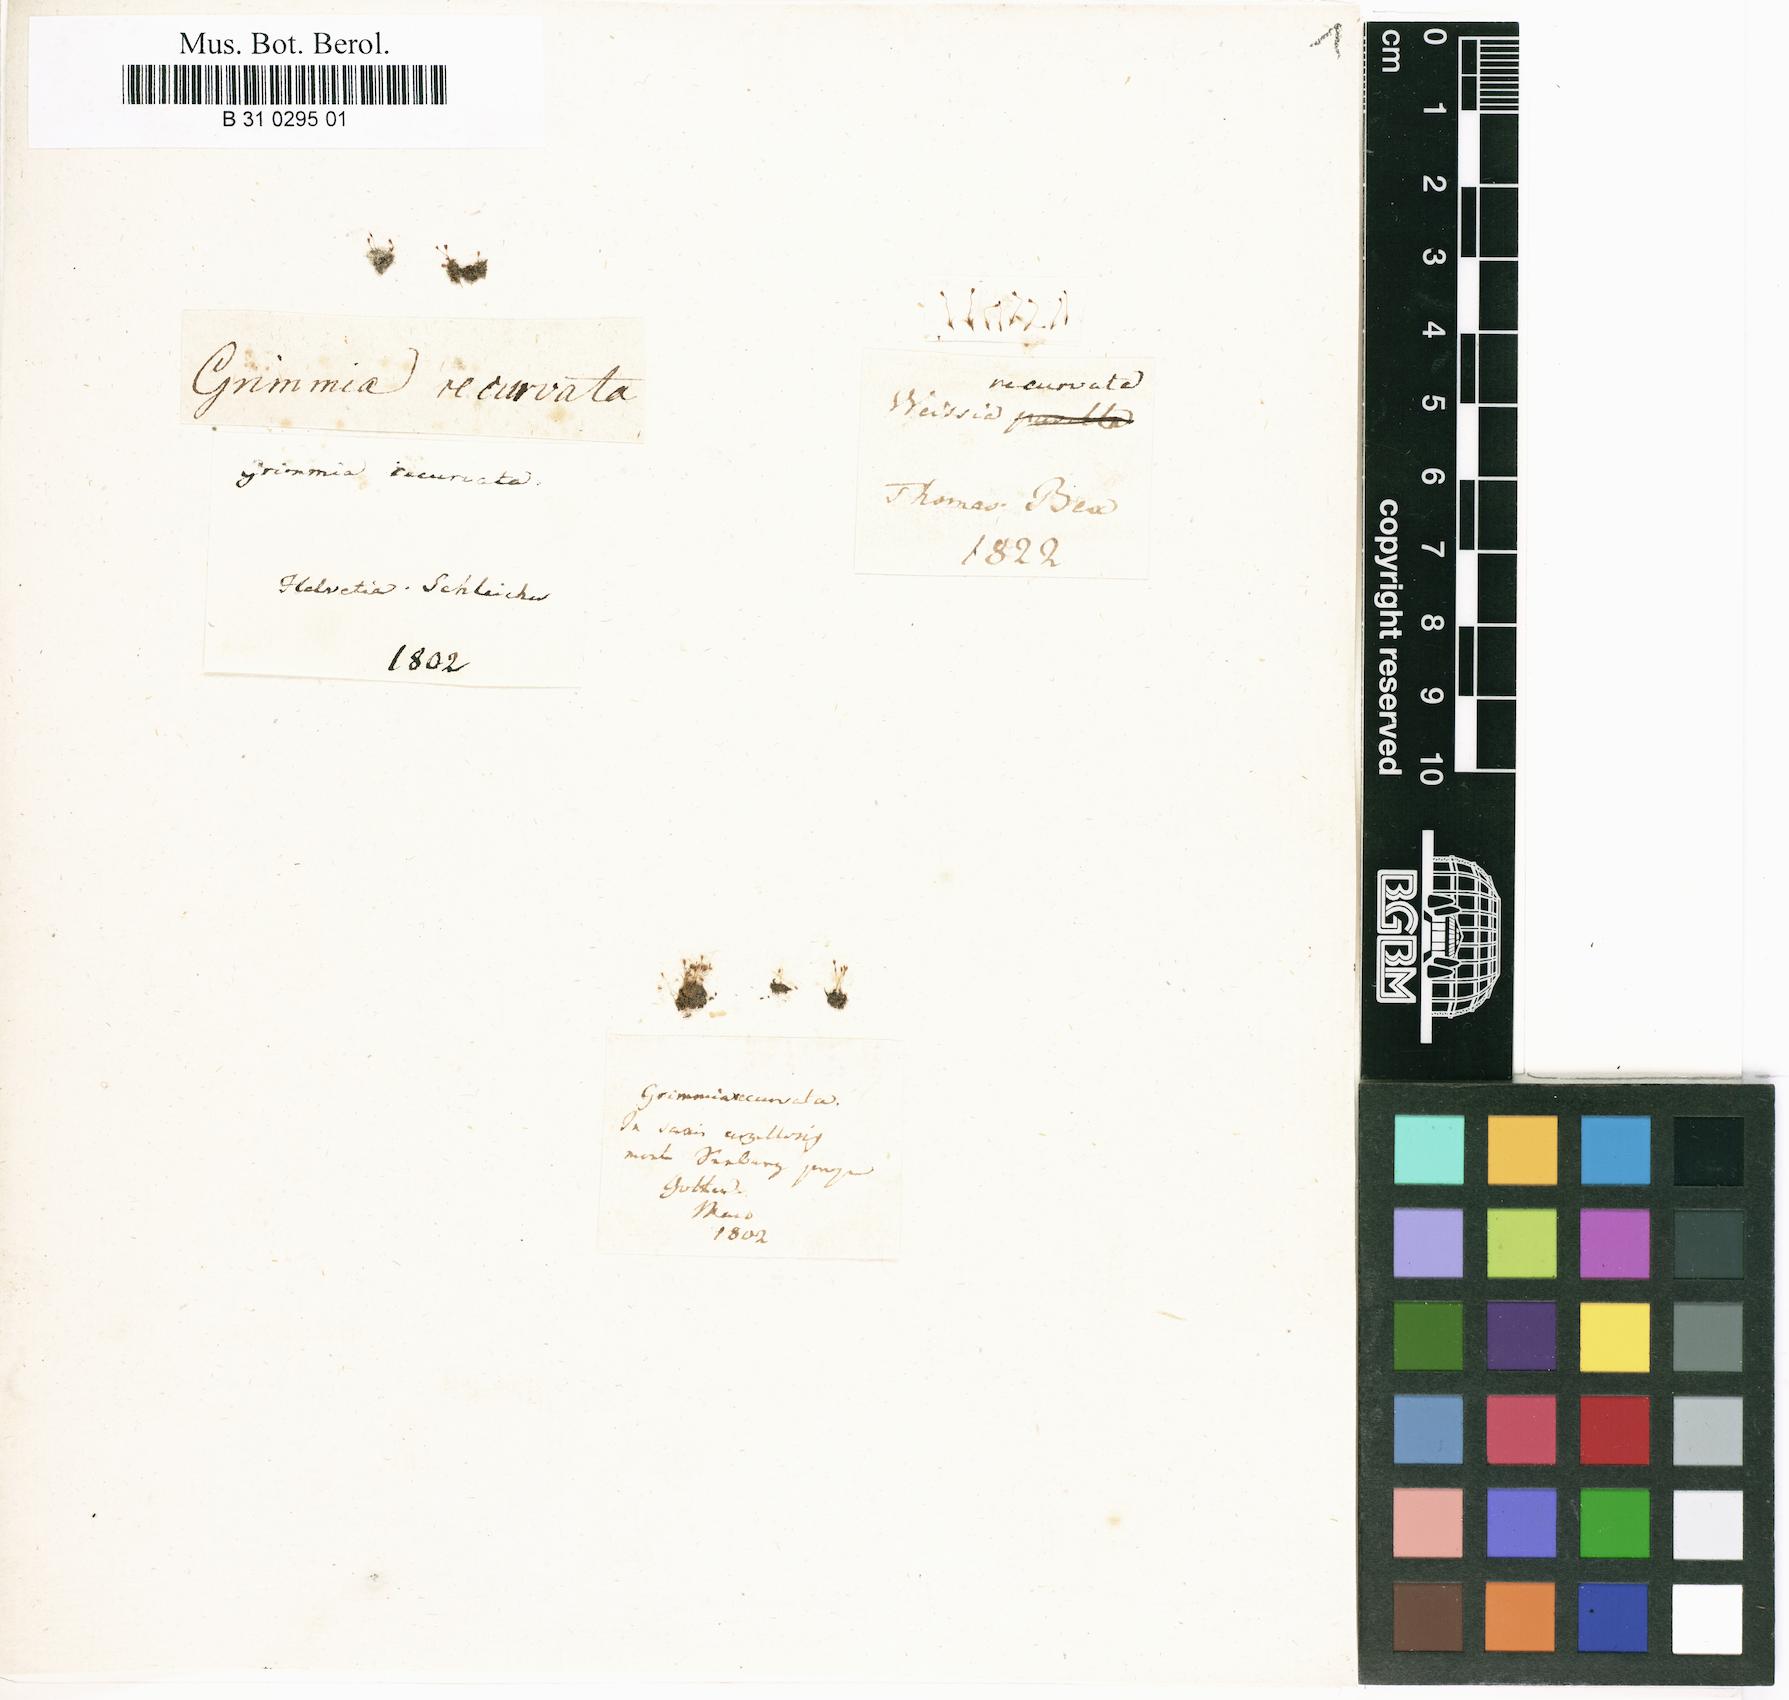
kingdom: Plantae
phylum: Bryophyta
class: Bryopsida
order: Grimmiales
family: Seligeriaceae
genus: Blindiadelphus
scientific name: Blindiadelphus recurvatus
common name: Recurved rock-bristle
